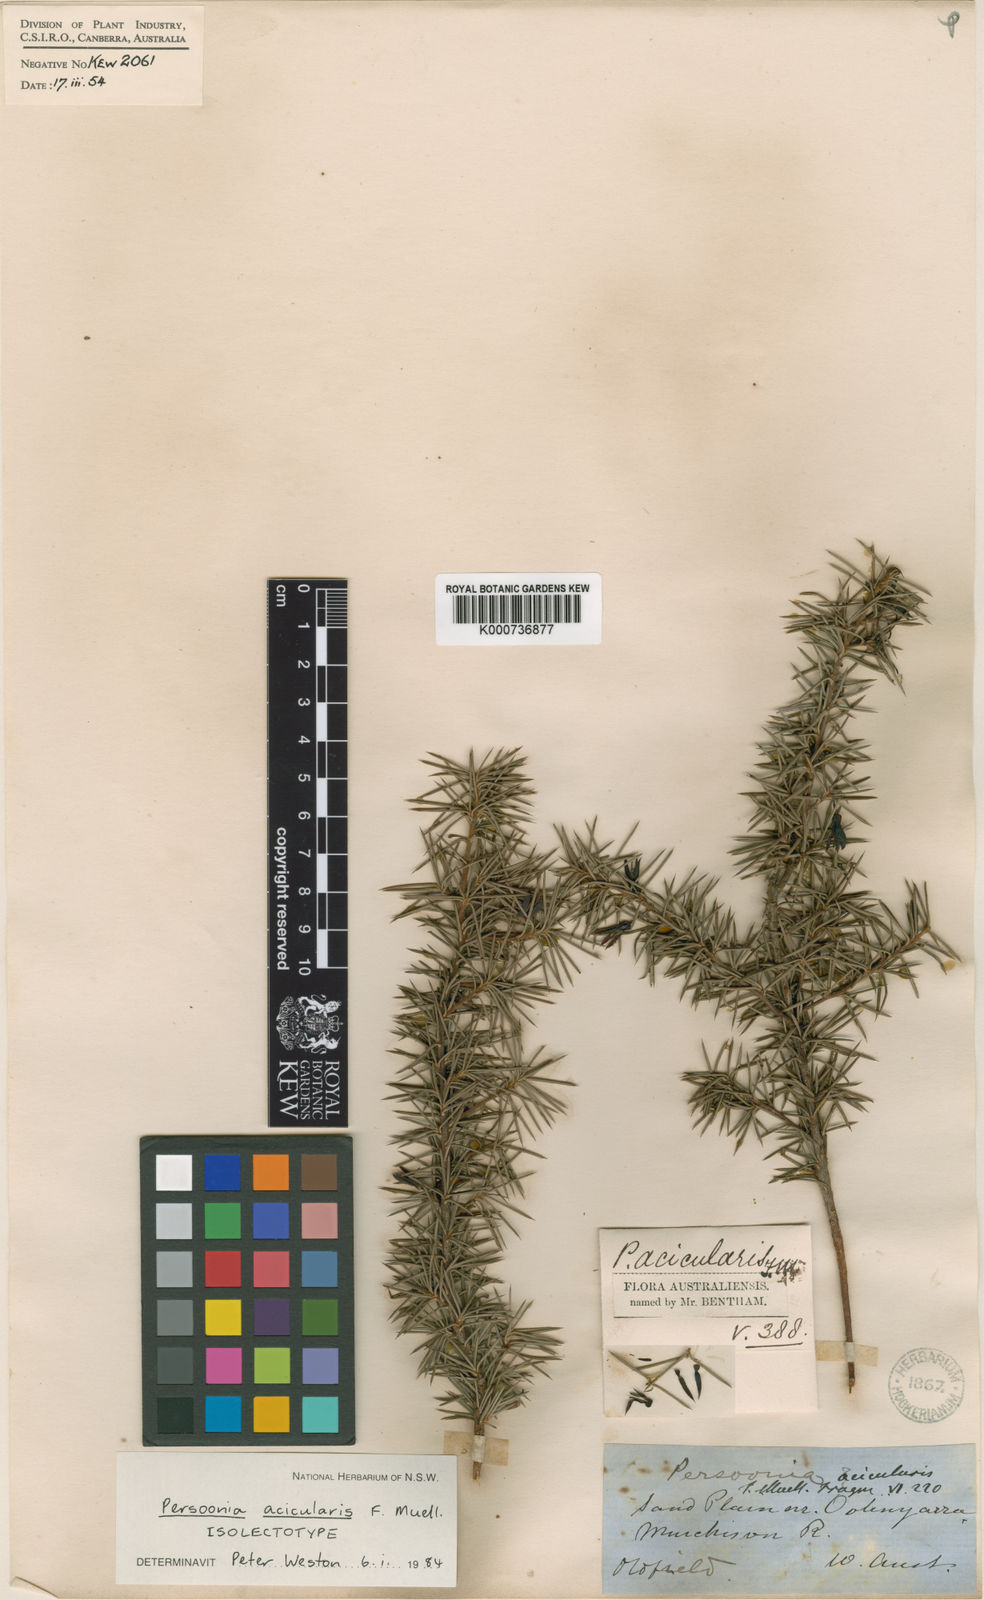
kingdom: Plantae
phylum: Tracheophyta
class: Magnoliopsida
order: Proteales
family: Proteaceae
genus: Persoonia
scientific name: Persoonia acicularis
